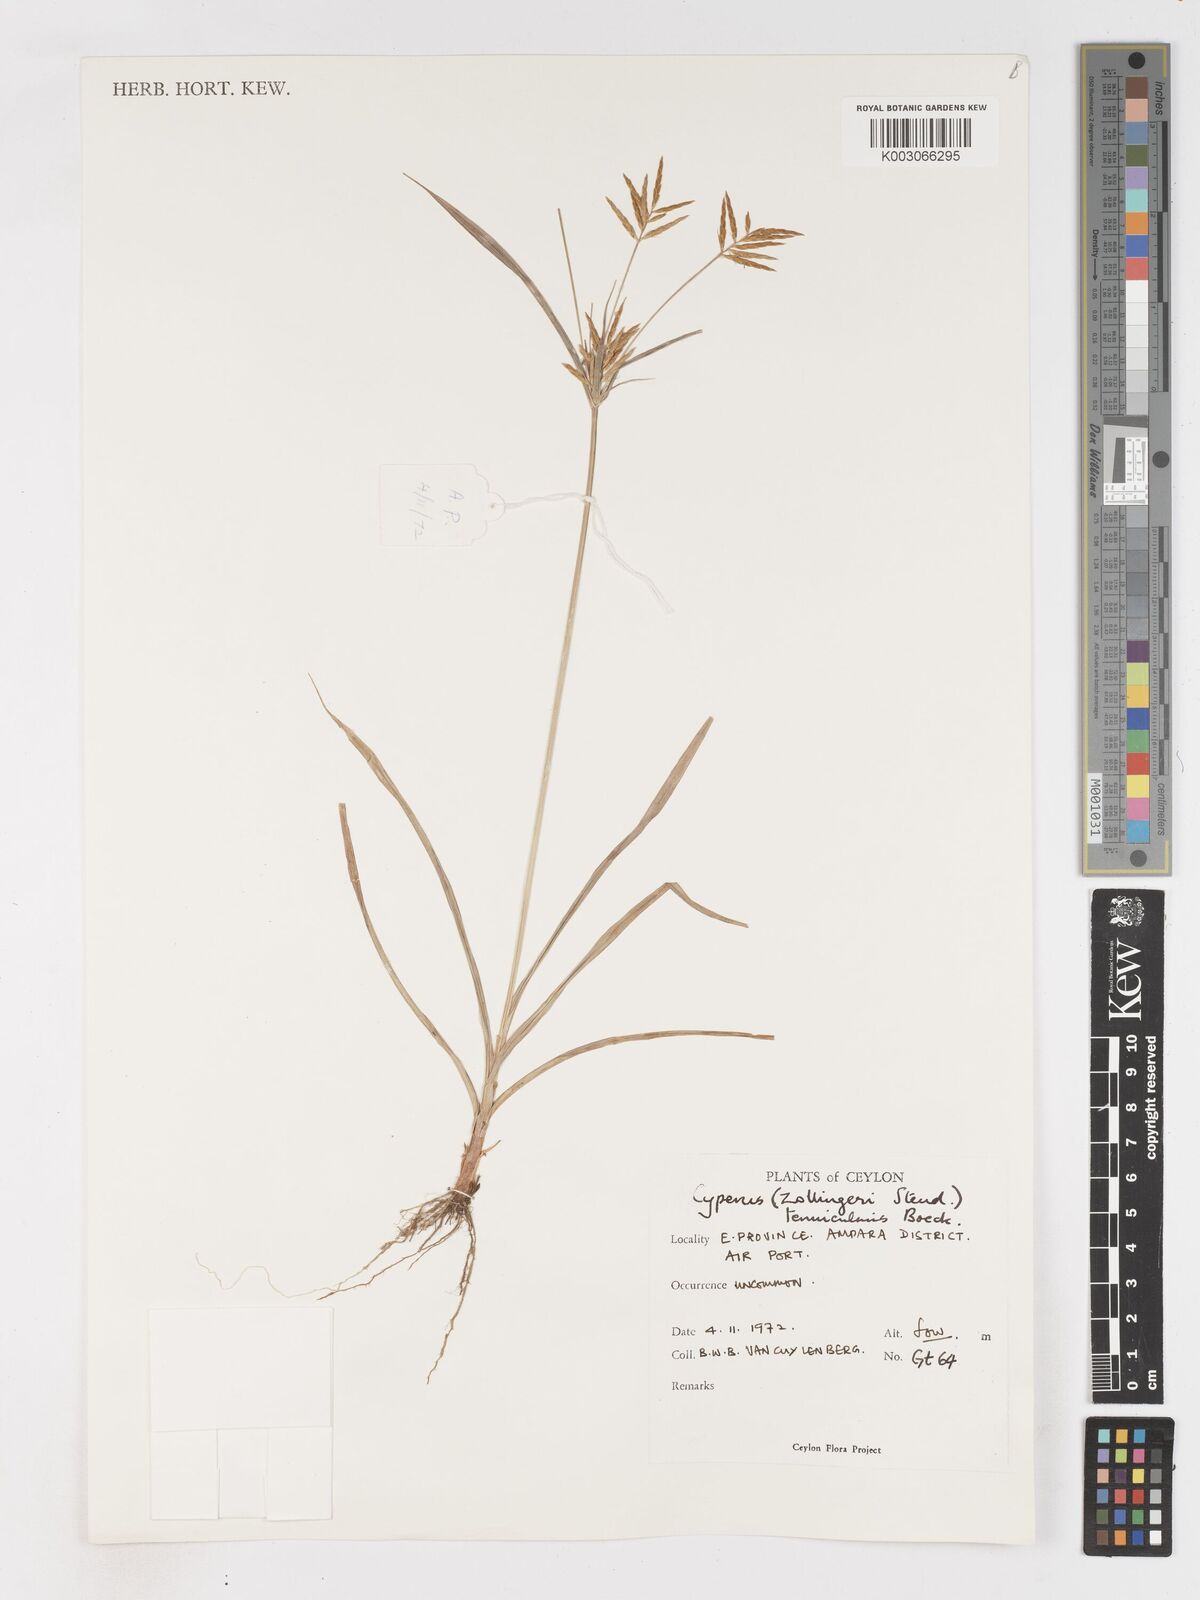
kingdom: Plantae
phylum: Tracheophyta
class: Liliopsida
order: Poales
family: Cyperaceae
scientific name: Cyperaceae
